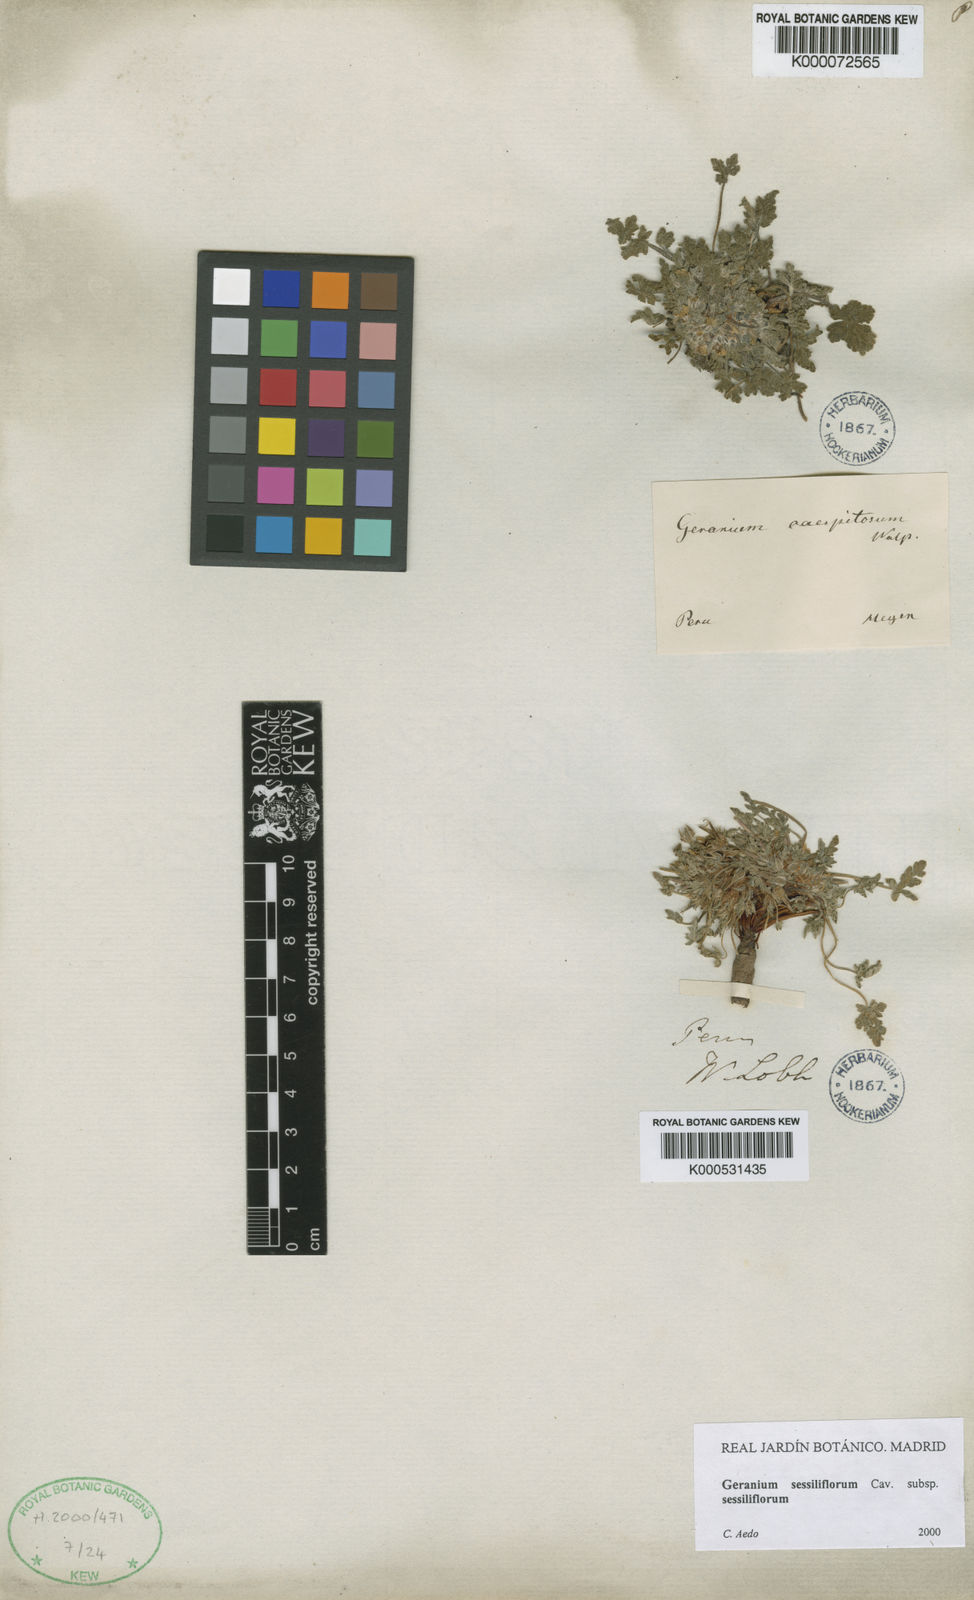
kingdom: Plantae
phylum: Tracheophyta
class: Magnoliopsida
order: Geraniales
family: Geraniaceae
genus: Geranium
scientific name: Geranium sessiliflorum
